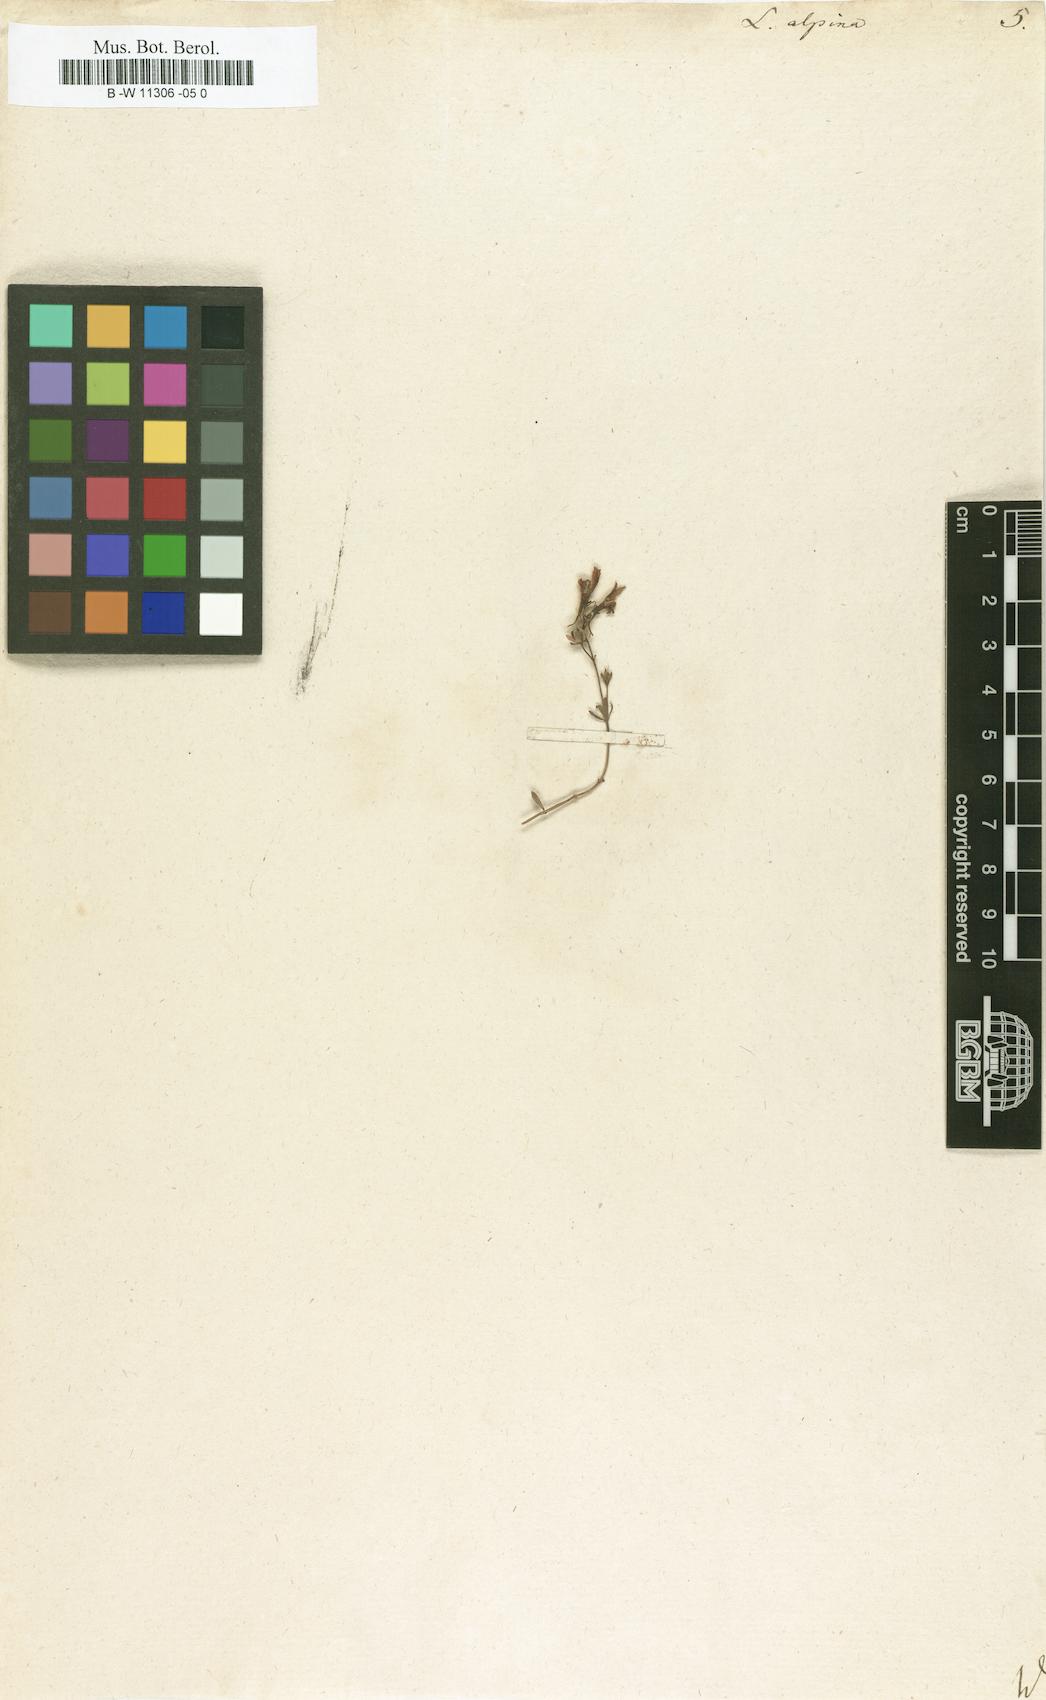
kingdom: Plantae
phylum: Tracheophyta
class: Magnoliopsida
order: Lamiales
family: Plantaginaceae
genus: Linaria
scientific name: Linaria alpina
